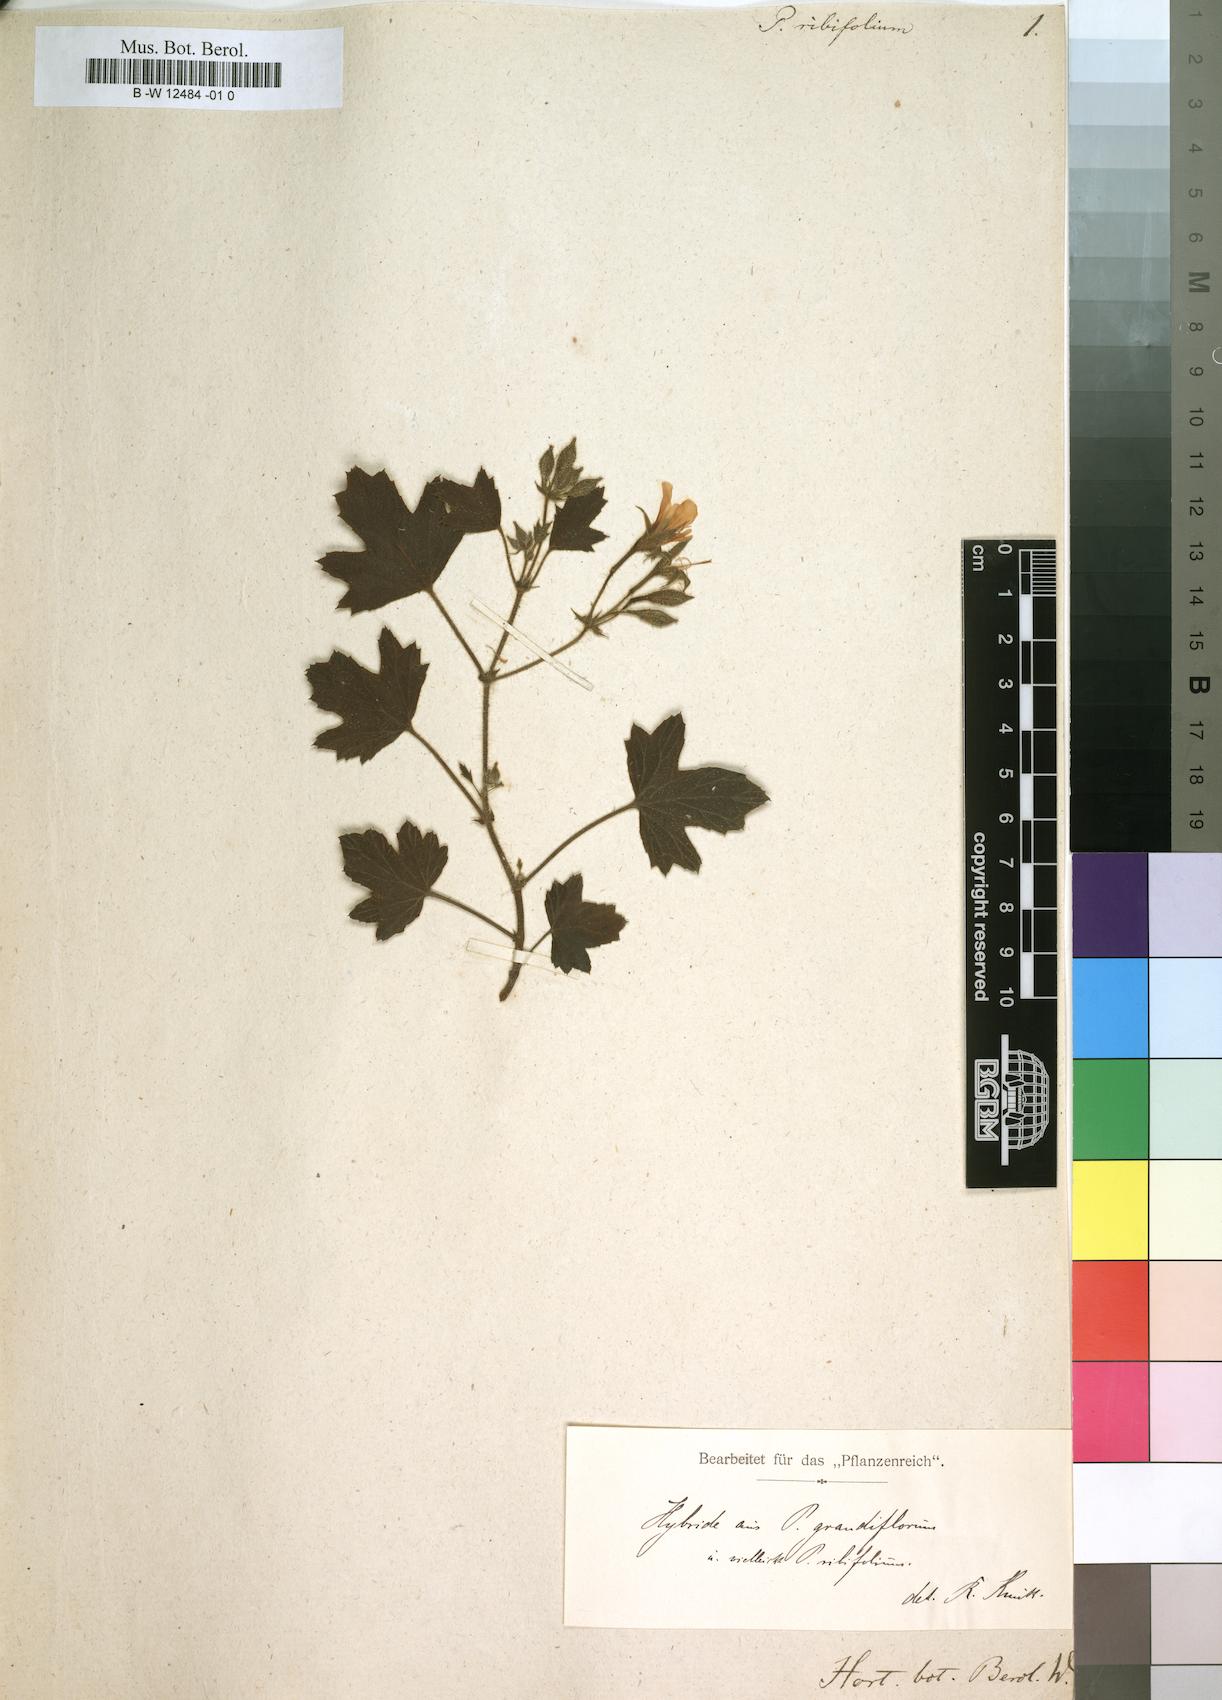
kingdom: Plantae
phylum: Tracheophyta
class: Magnoliopsida
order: Geraniales
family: Geraniaceae
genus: Pelargonium
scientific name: Pelargonium ribifolium
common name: Currant-leaf pelargonium
